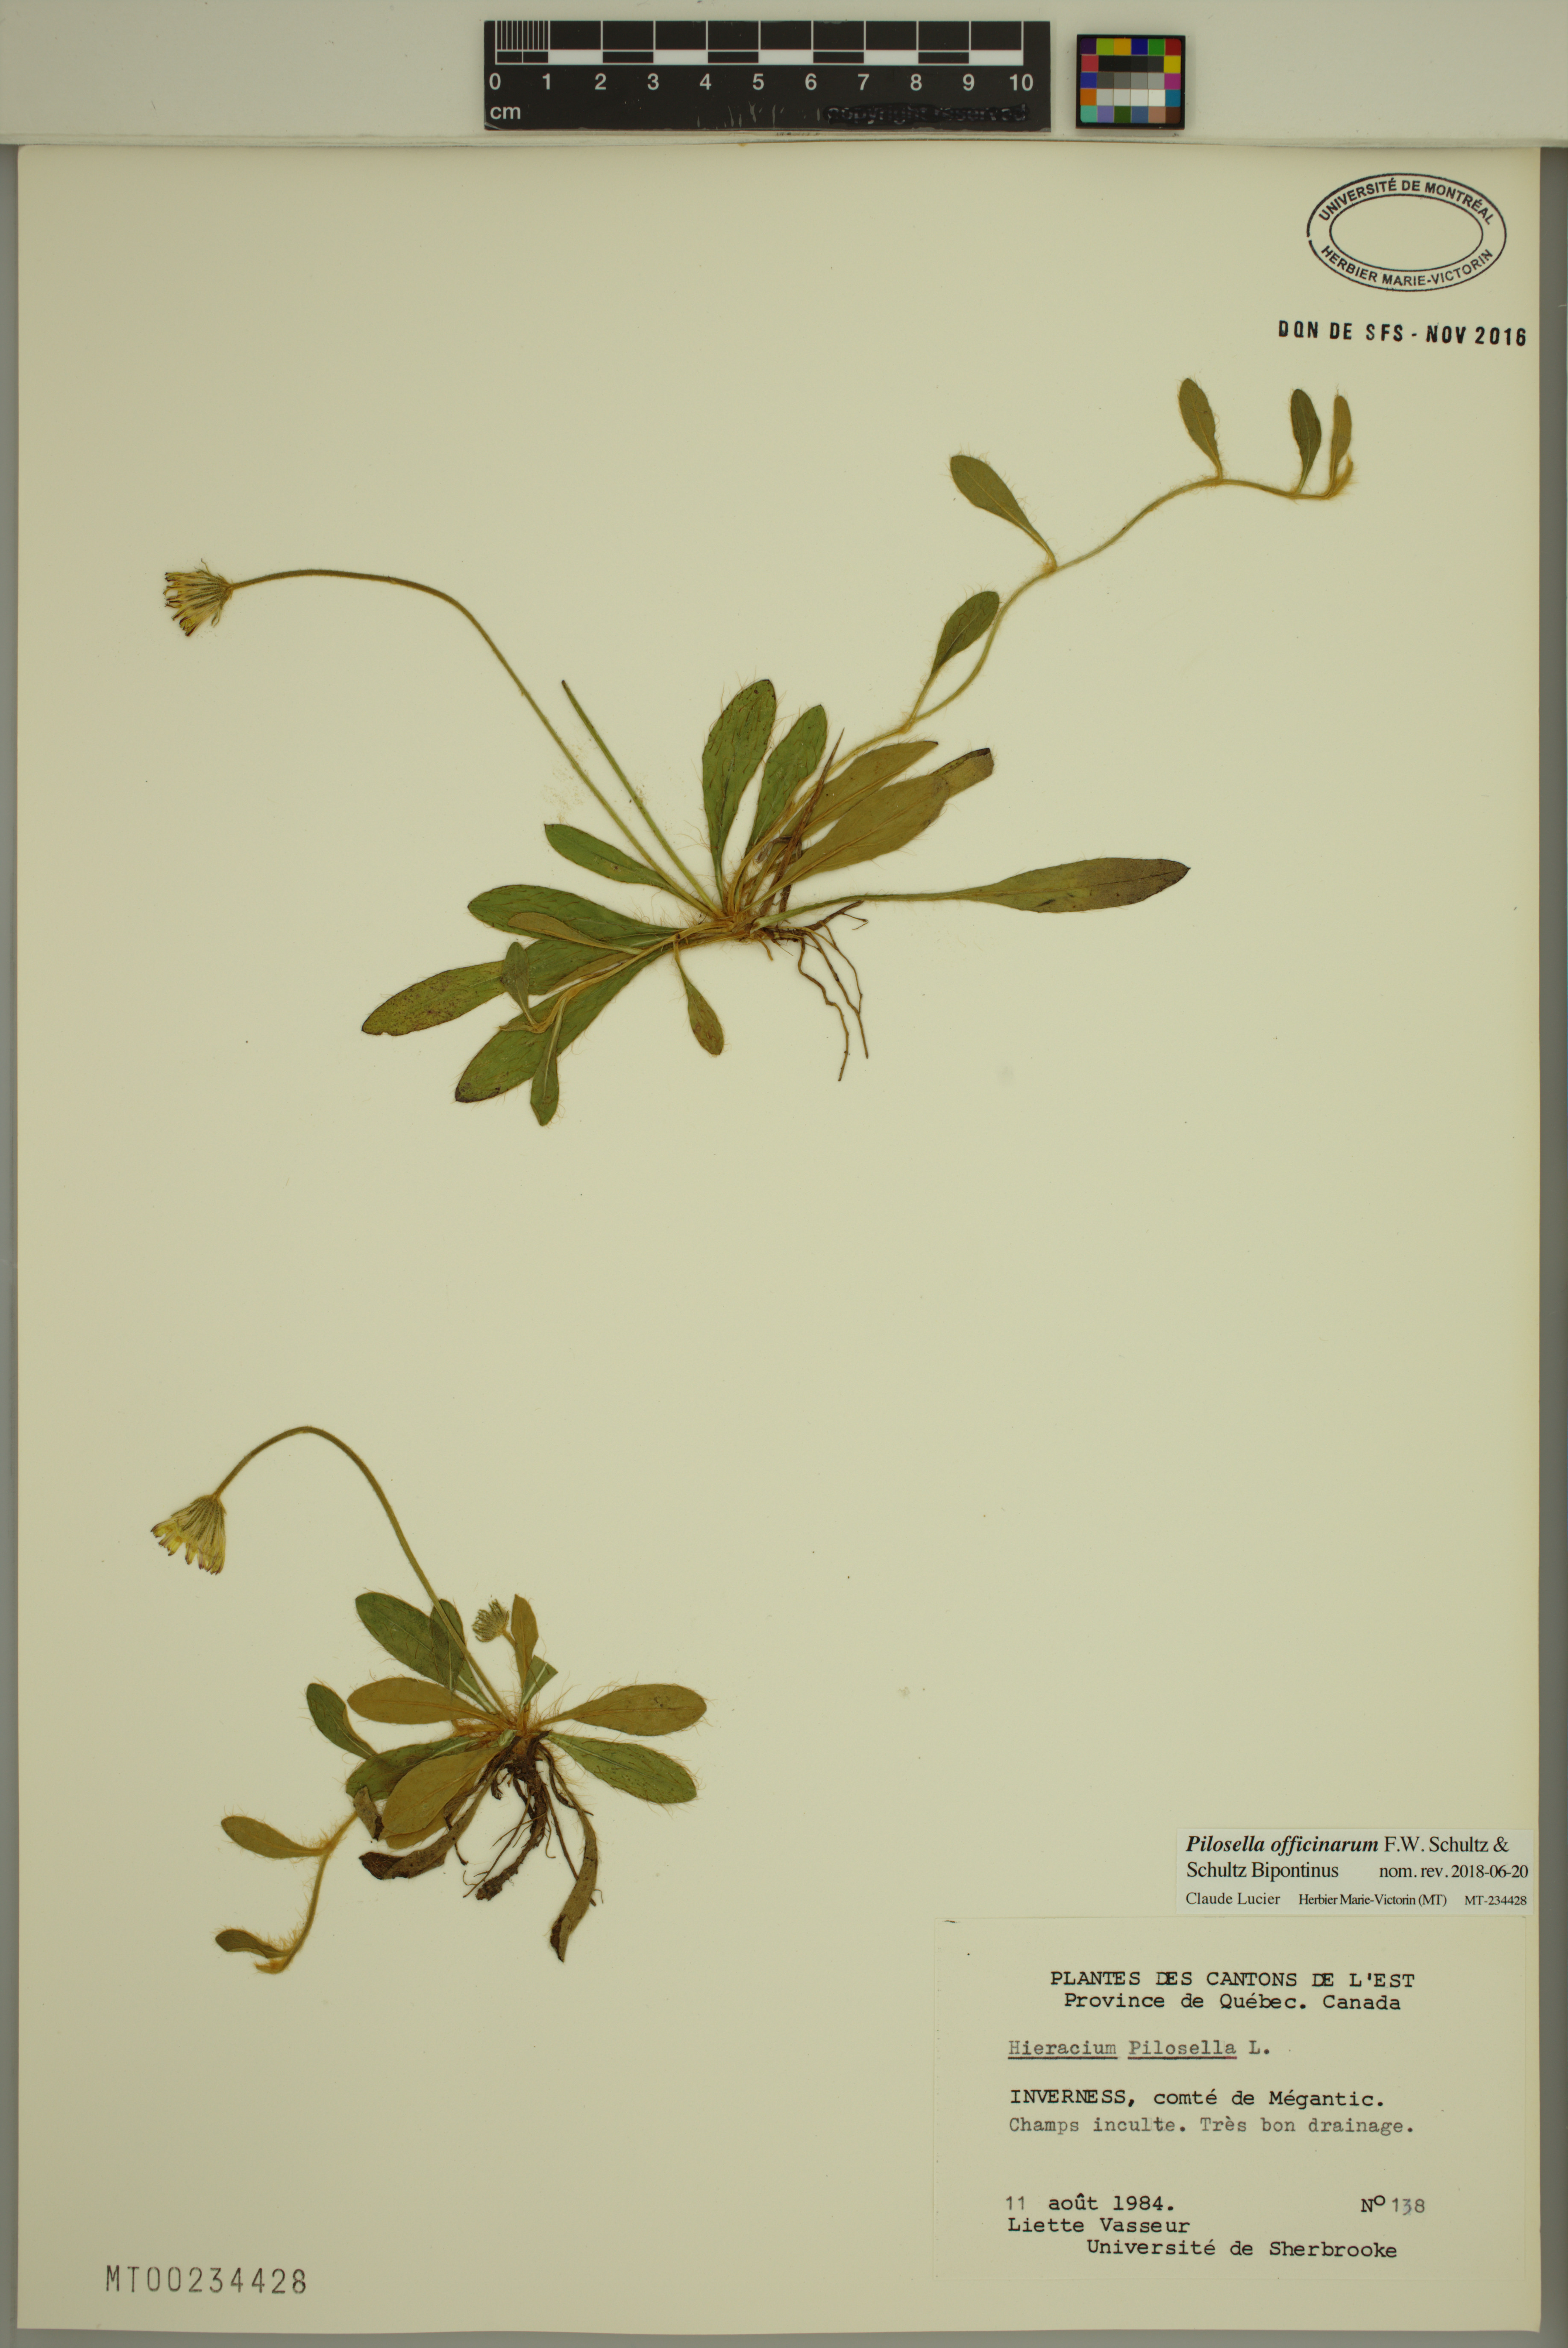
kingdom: Plantae
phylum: Tracheophyta
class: Magnoliopsida
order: Asterales
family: Asteraceae
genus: Pilosella
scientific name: Pilosella officinarum
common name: Mouse-ear hawkweed
